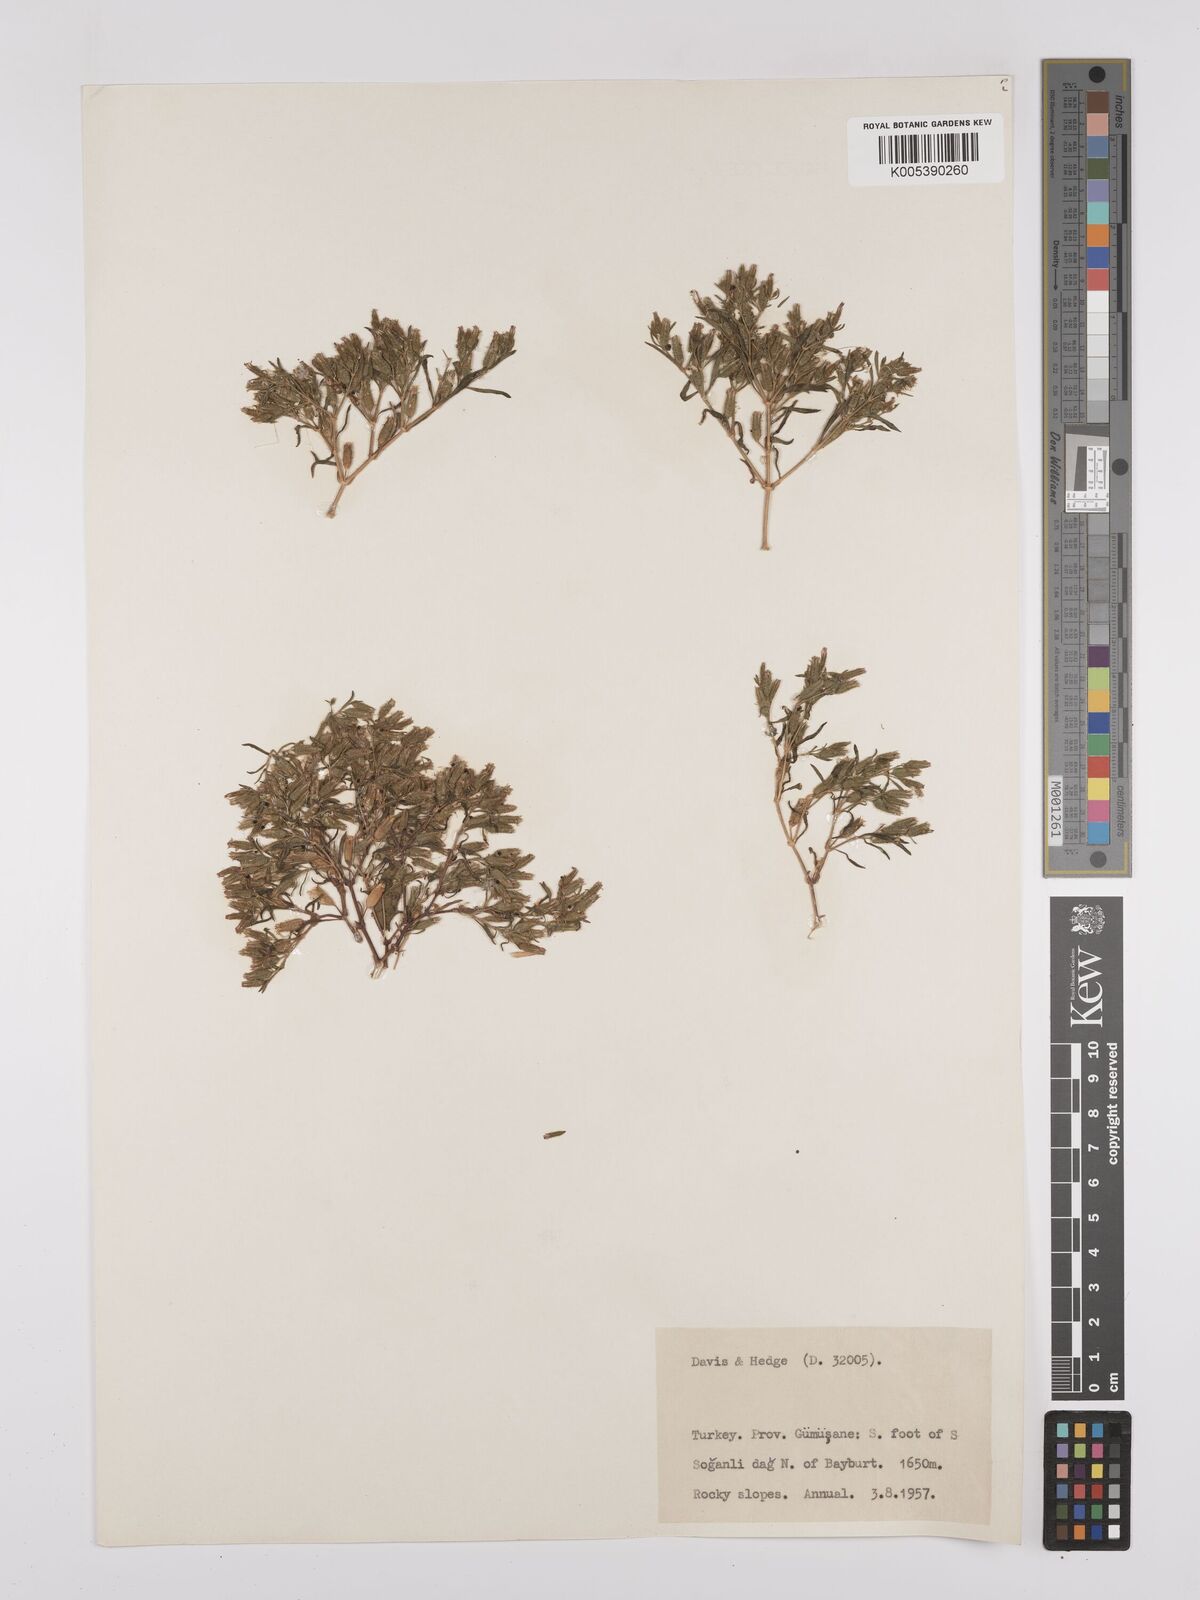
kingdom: Plantae
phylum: Tracheophyta
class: Magnoliopsida
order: Caryophyllales
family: Caryophyllaceae
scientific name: Caryophyllaceae
